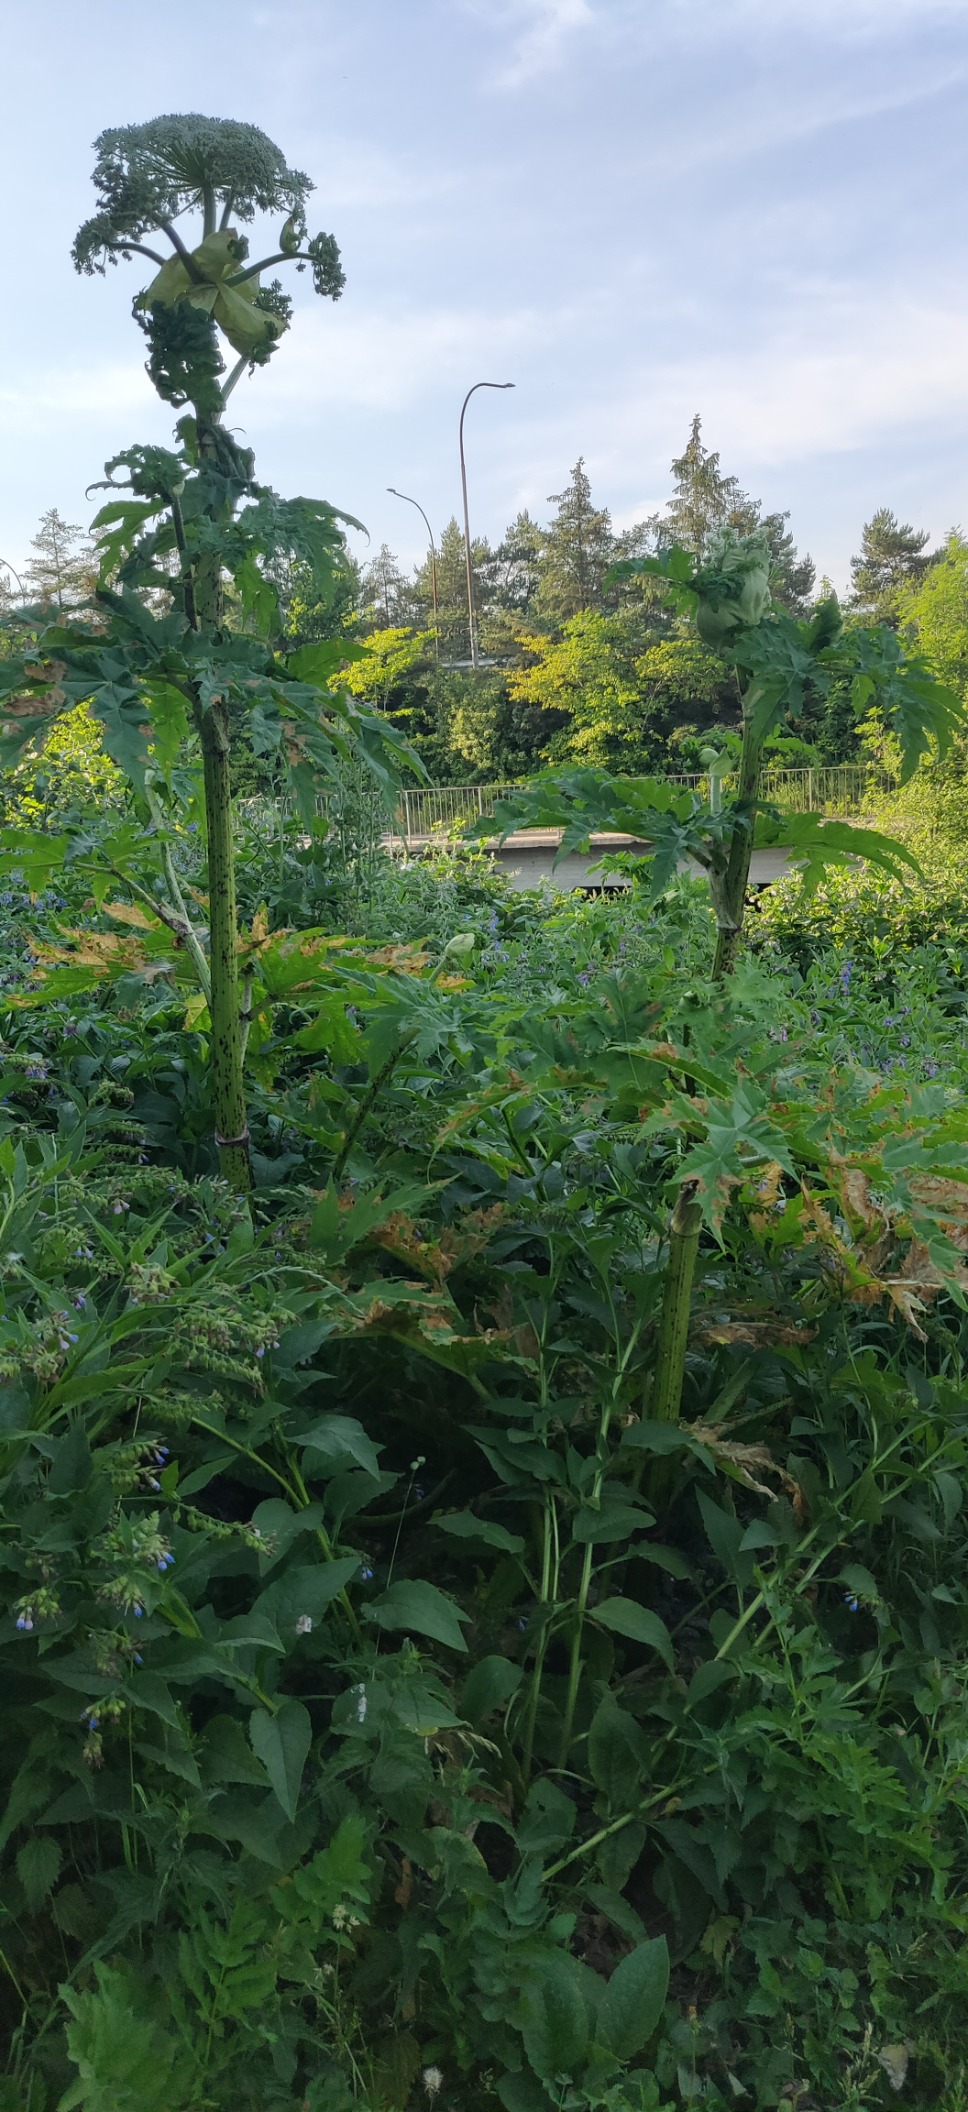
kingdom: Plantae
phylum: Tracheophyta
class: Magnoliopsida
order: Apiales
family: Apiaceae
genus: Heracleum
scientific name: Heracleum mantegazzianum
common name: Kæmpe-bjørneklo
